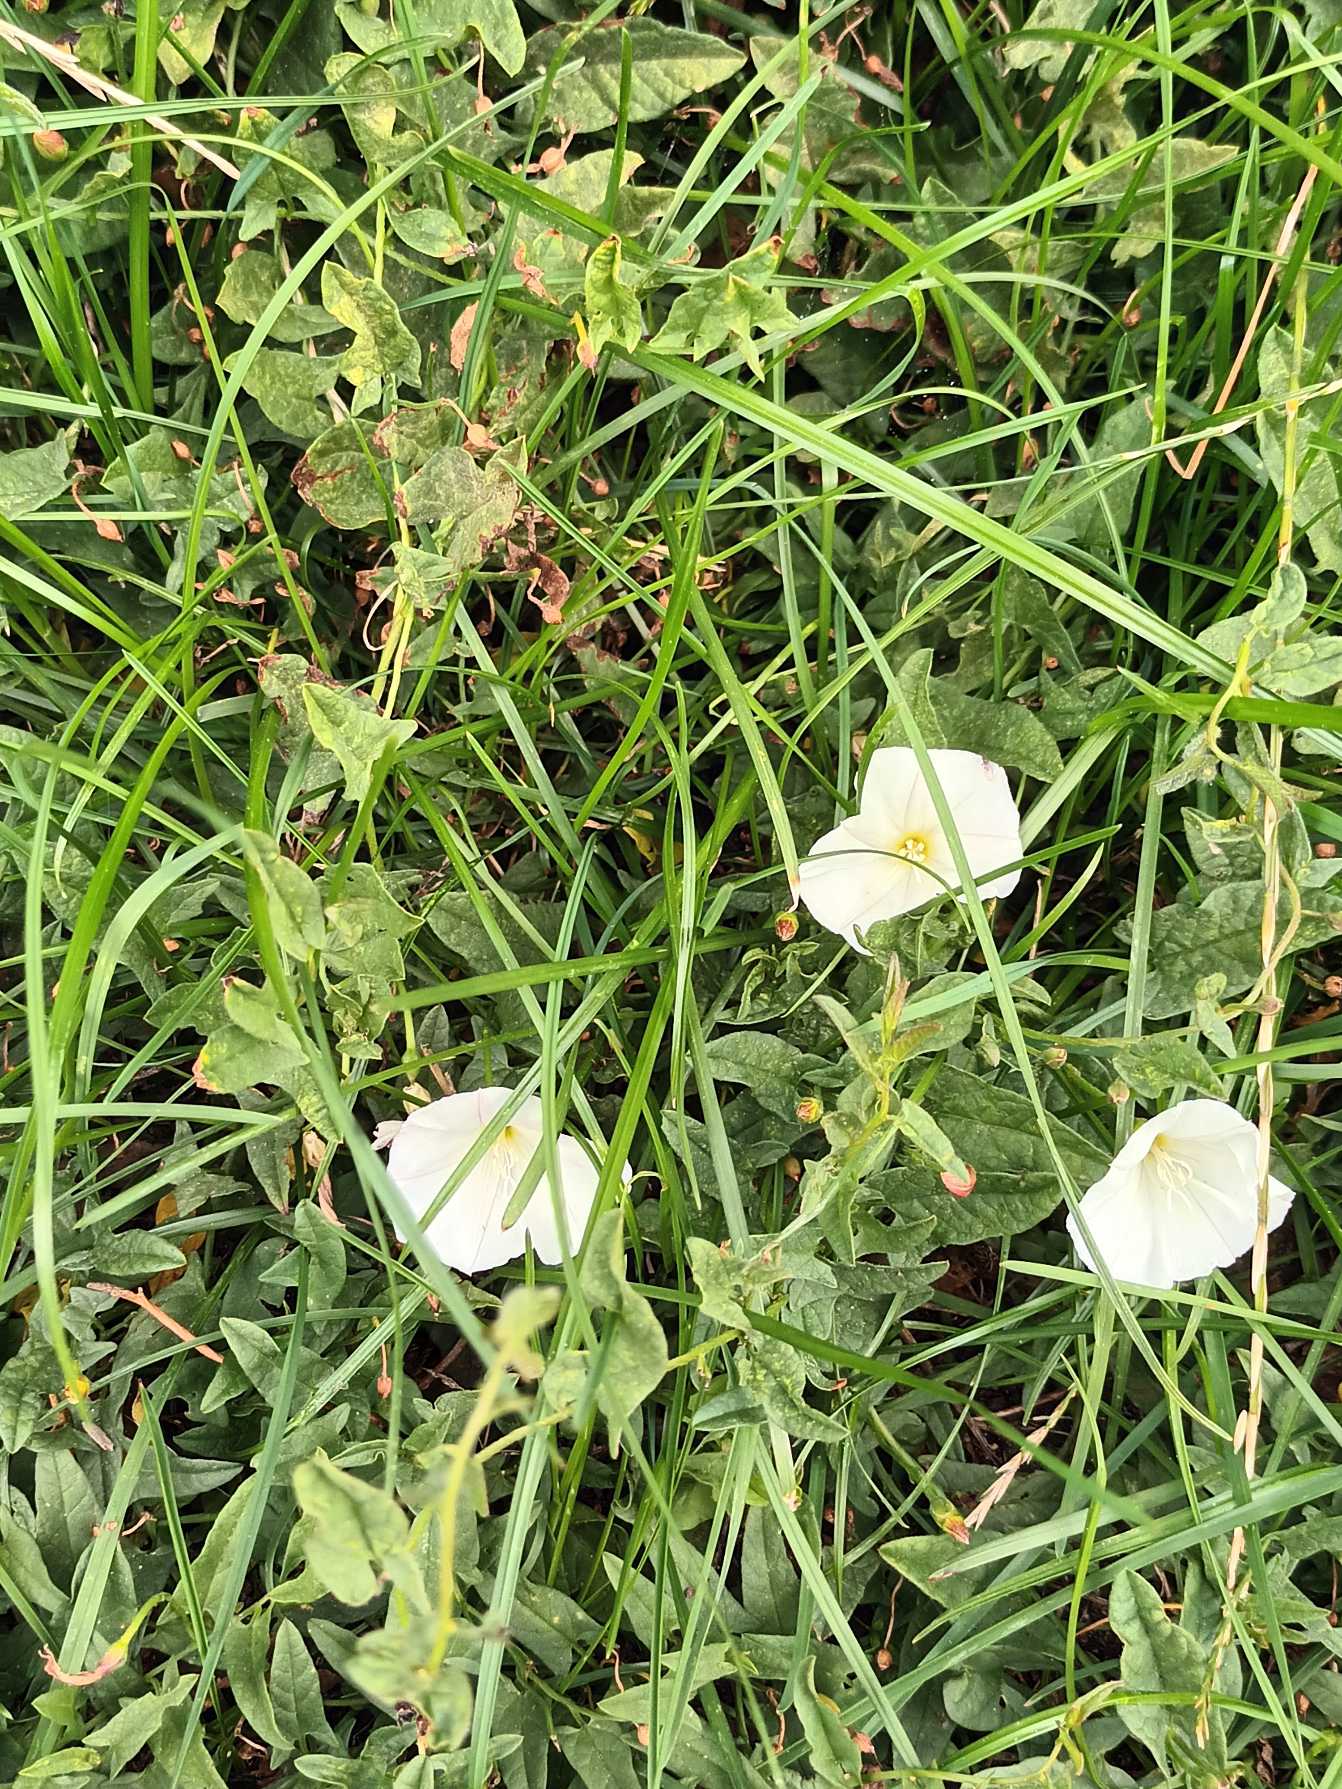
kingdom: Plantae
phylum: Tracheophyta
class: Magnoliopsida
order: Solanales
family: Convolvulaceae
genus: Convolvulus
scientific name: Convolvulus arvensis
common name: Ager-snerle
